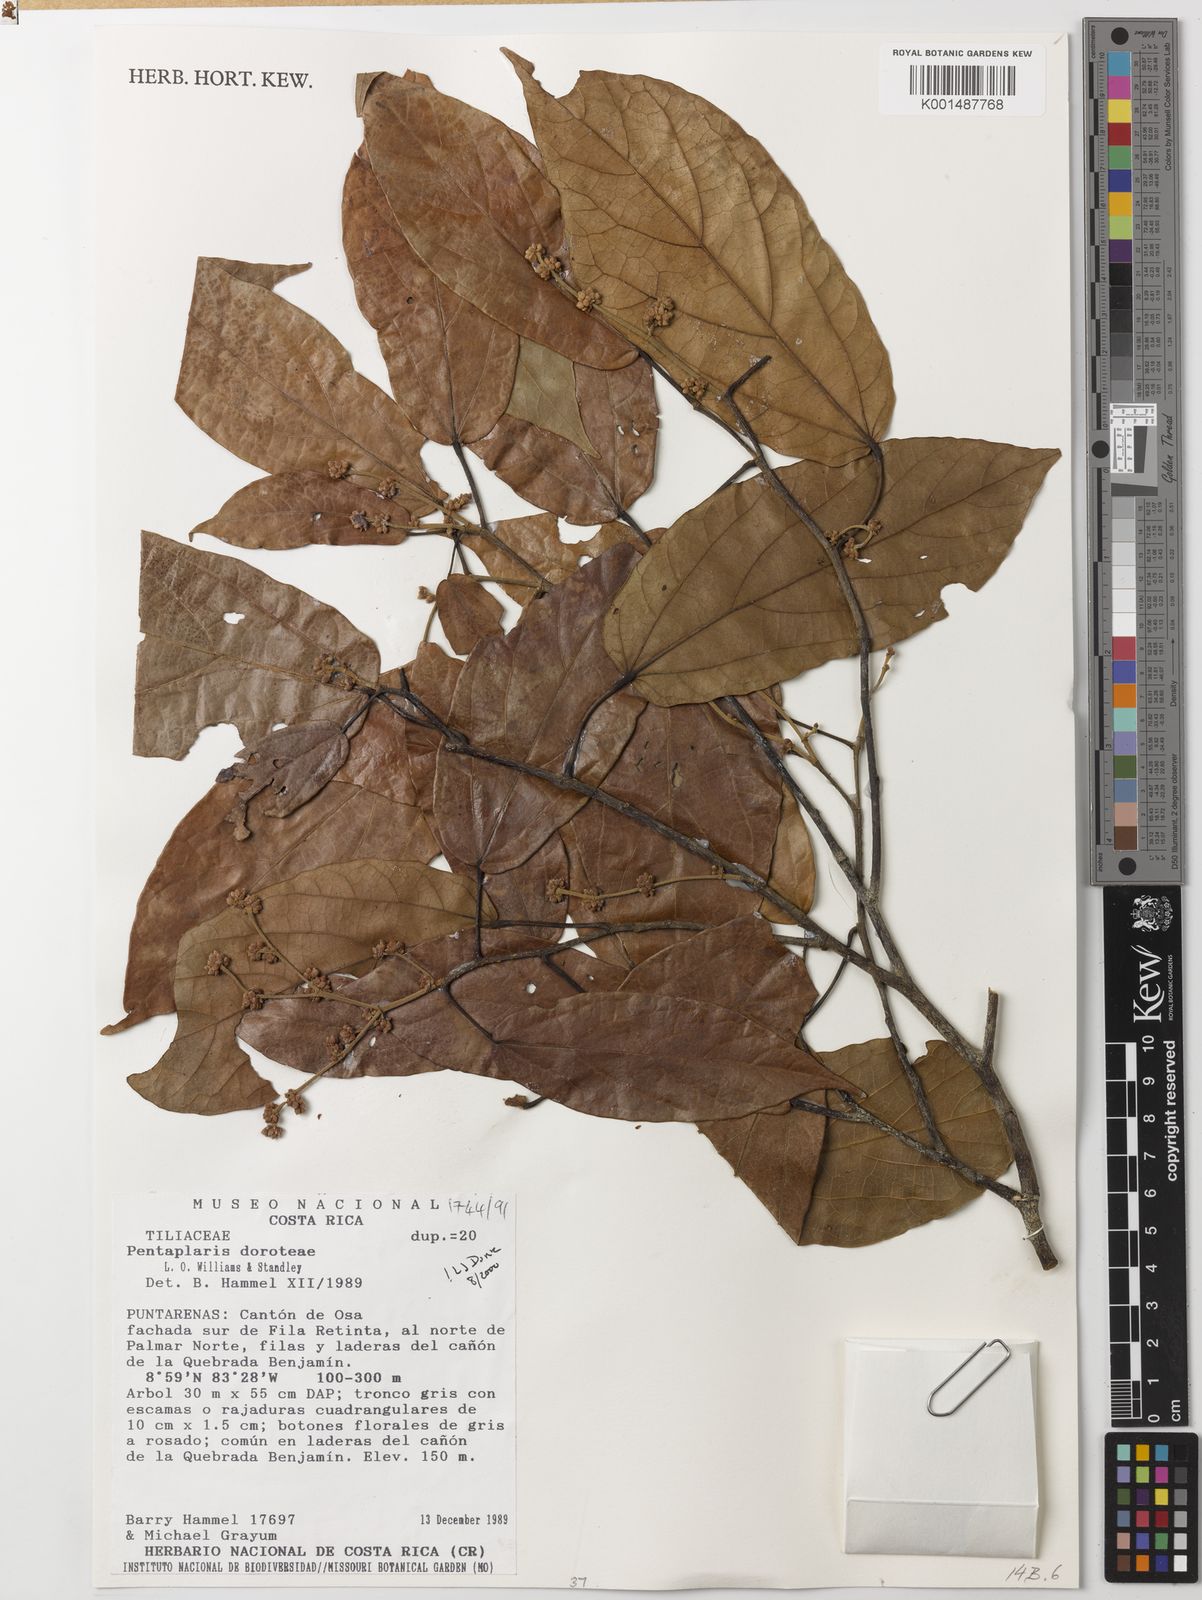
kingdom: Plantae
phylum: Tracheophyta
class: Magnoliopsida
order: Malvales
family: Malvaceae
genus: Pentaplaris
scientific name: Pentaplaris doroteae
